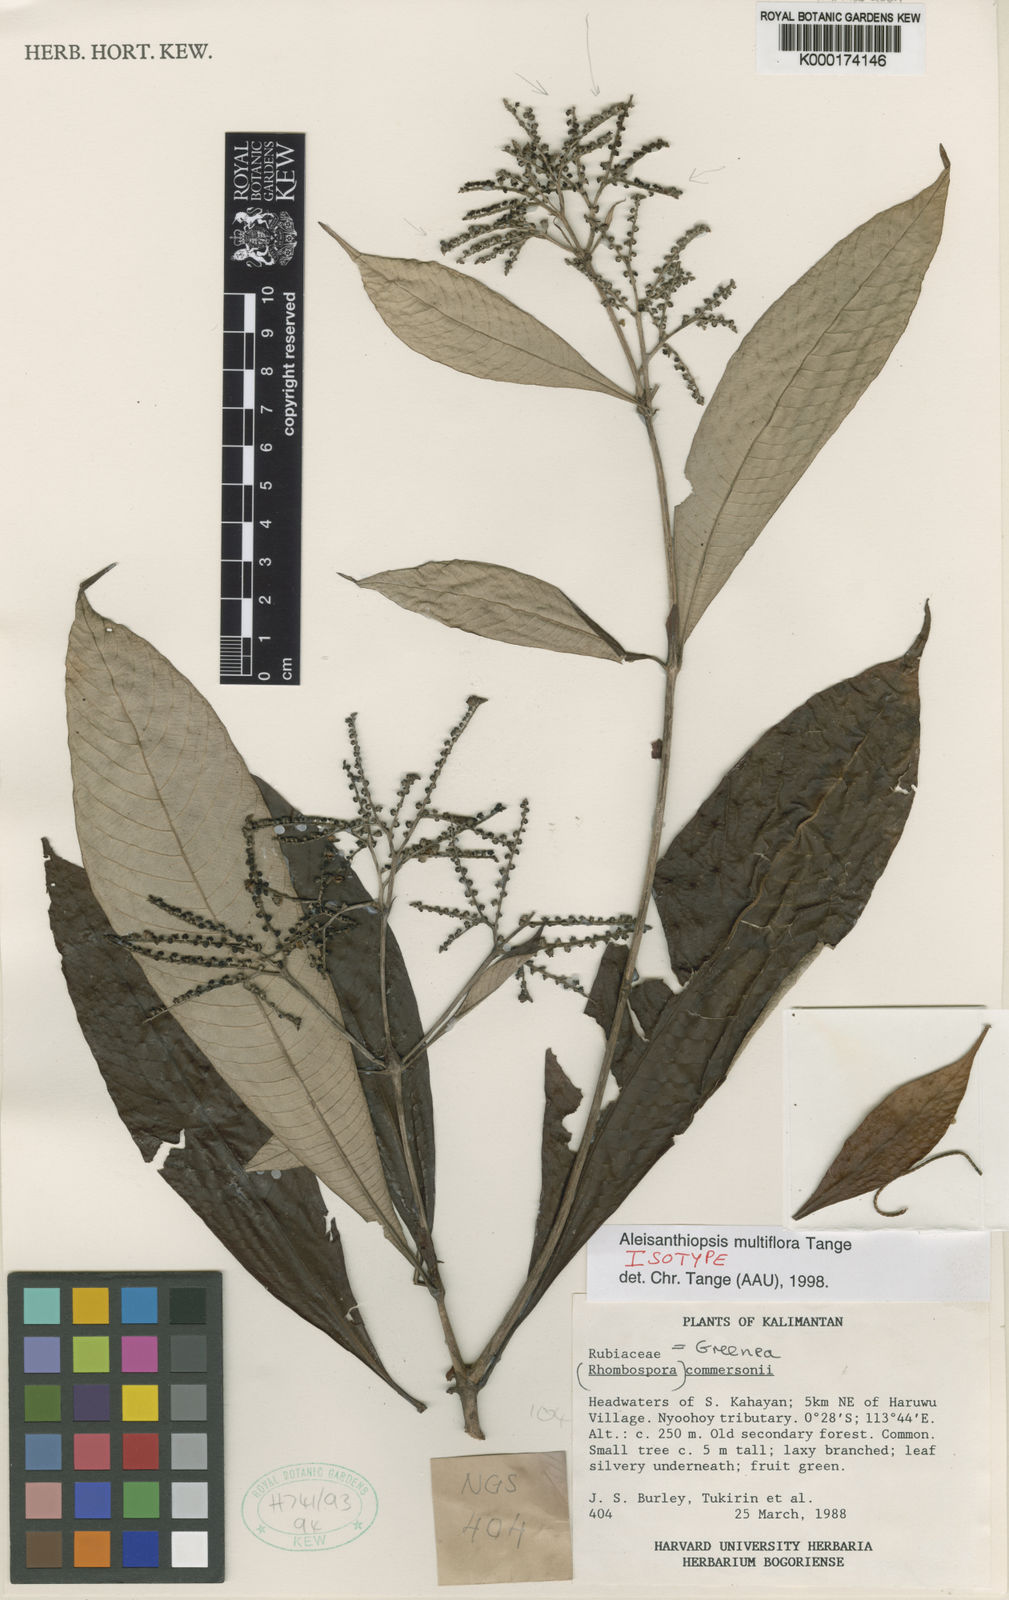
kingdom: Plantae
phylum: Tracheophyta
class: Magnoliopsida
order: Gentianales
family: Rubiaceae
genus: Aleisanthiopsis
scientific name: Aleisanthiopsis multiflora
